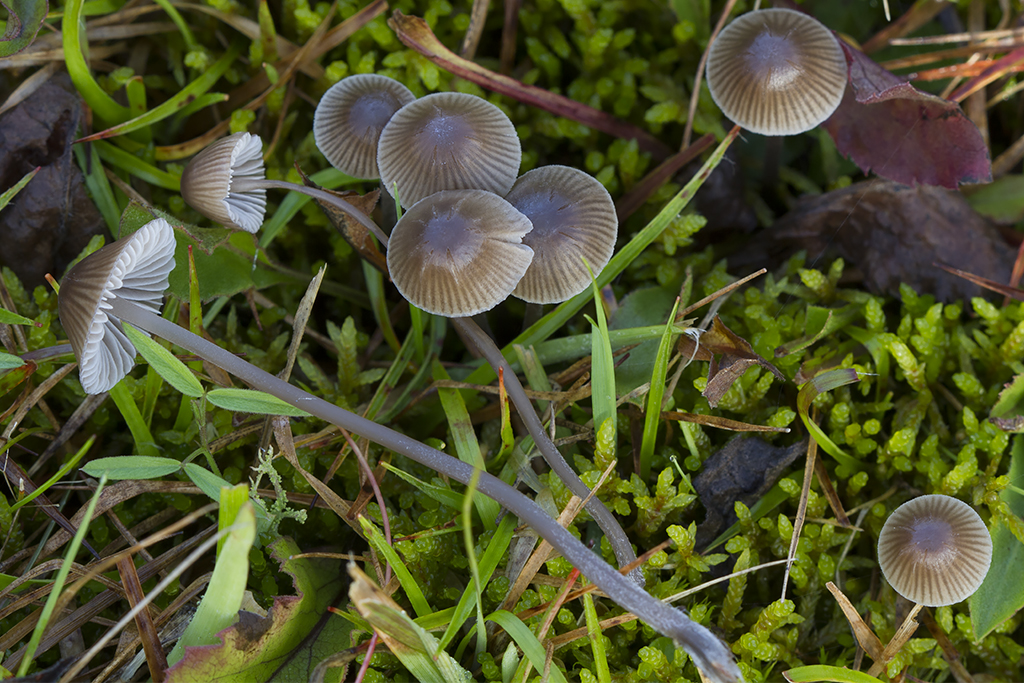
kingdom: Fungi
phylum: Basidiomycota
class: Agaricomycetes
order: Agaricales
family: Mycenaceae
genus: Mycena
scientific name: Mycena leptocephala
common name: klor-huesvamp
